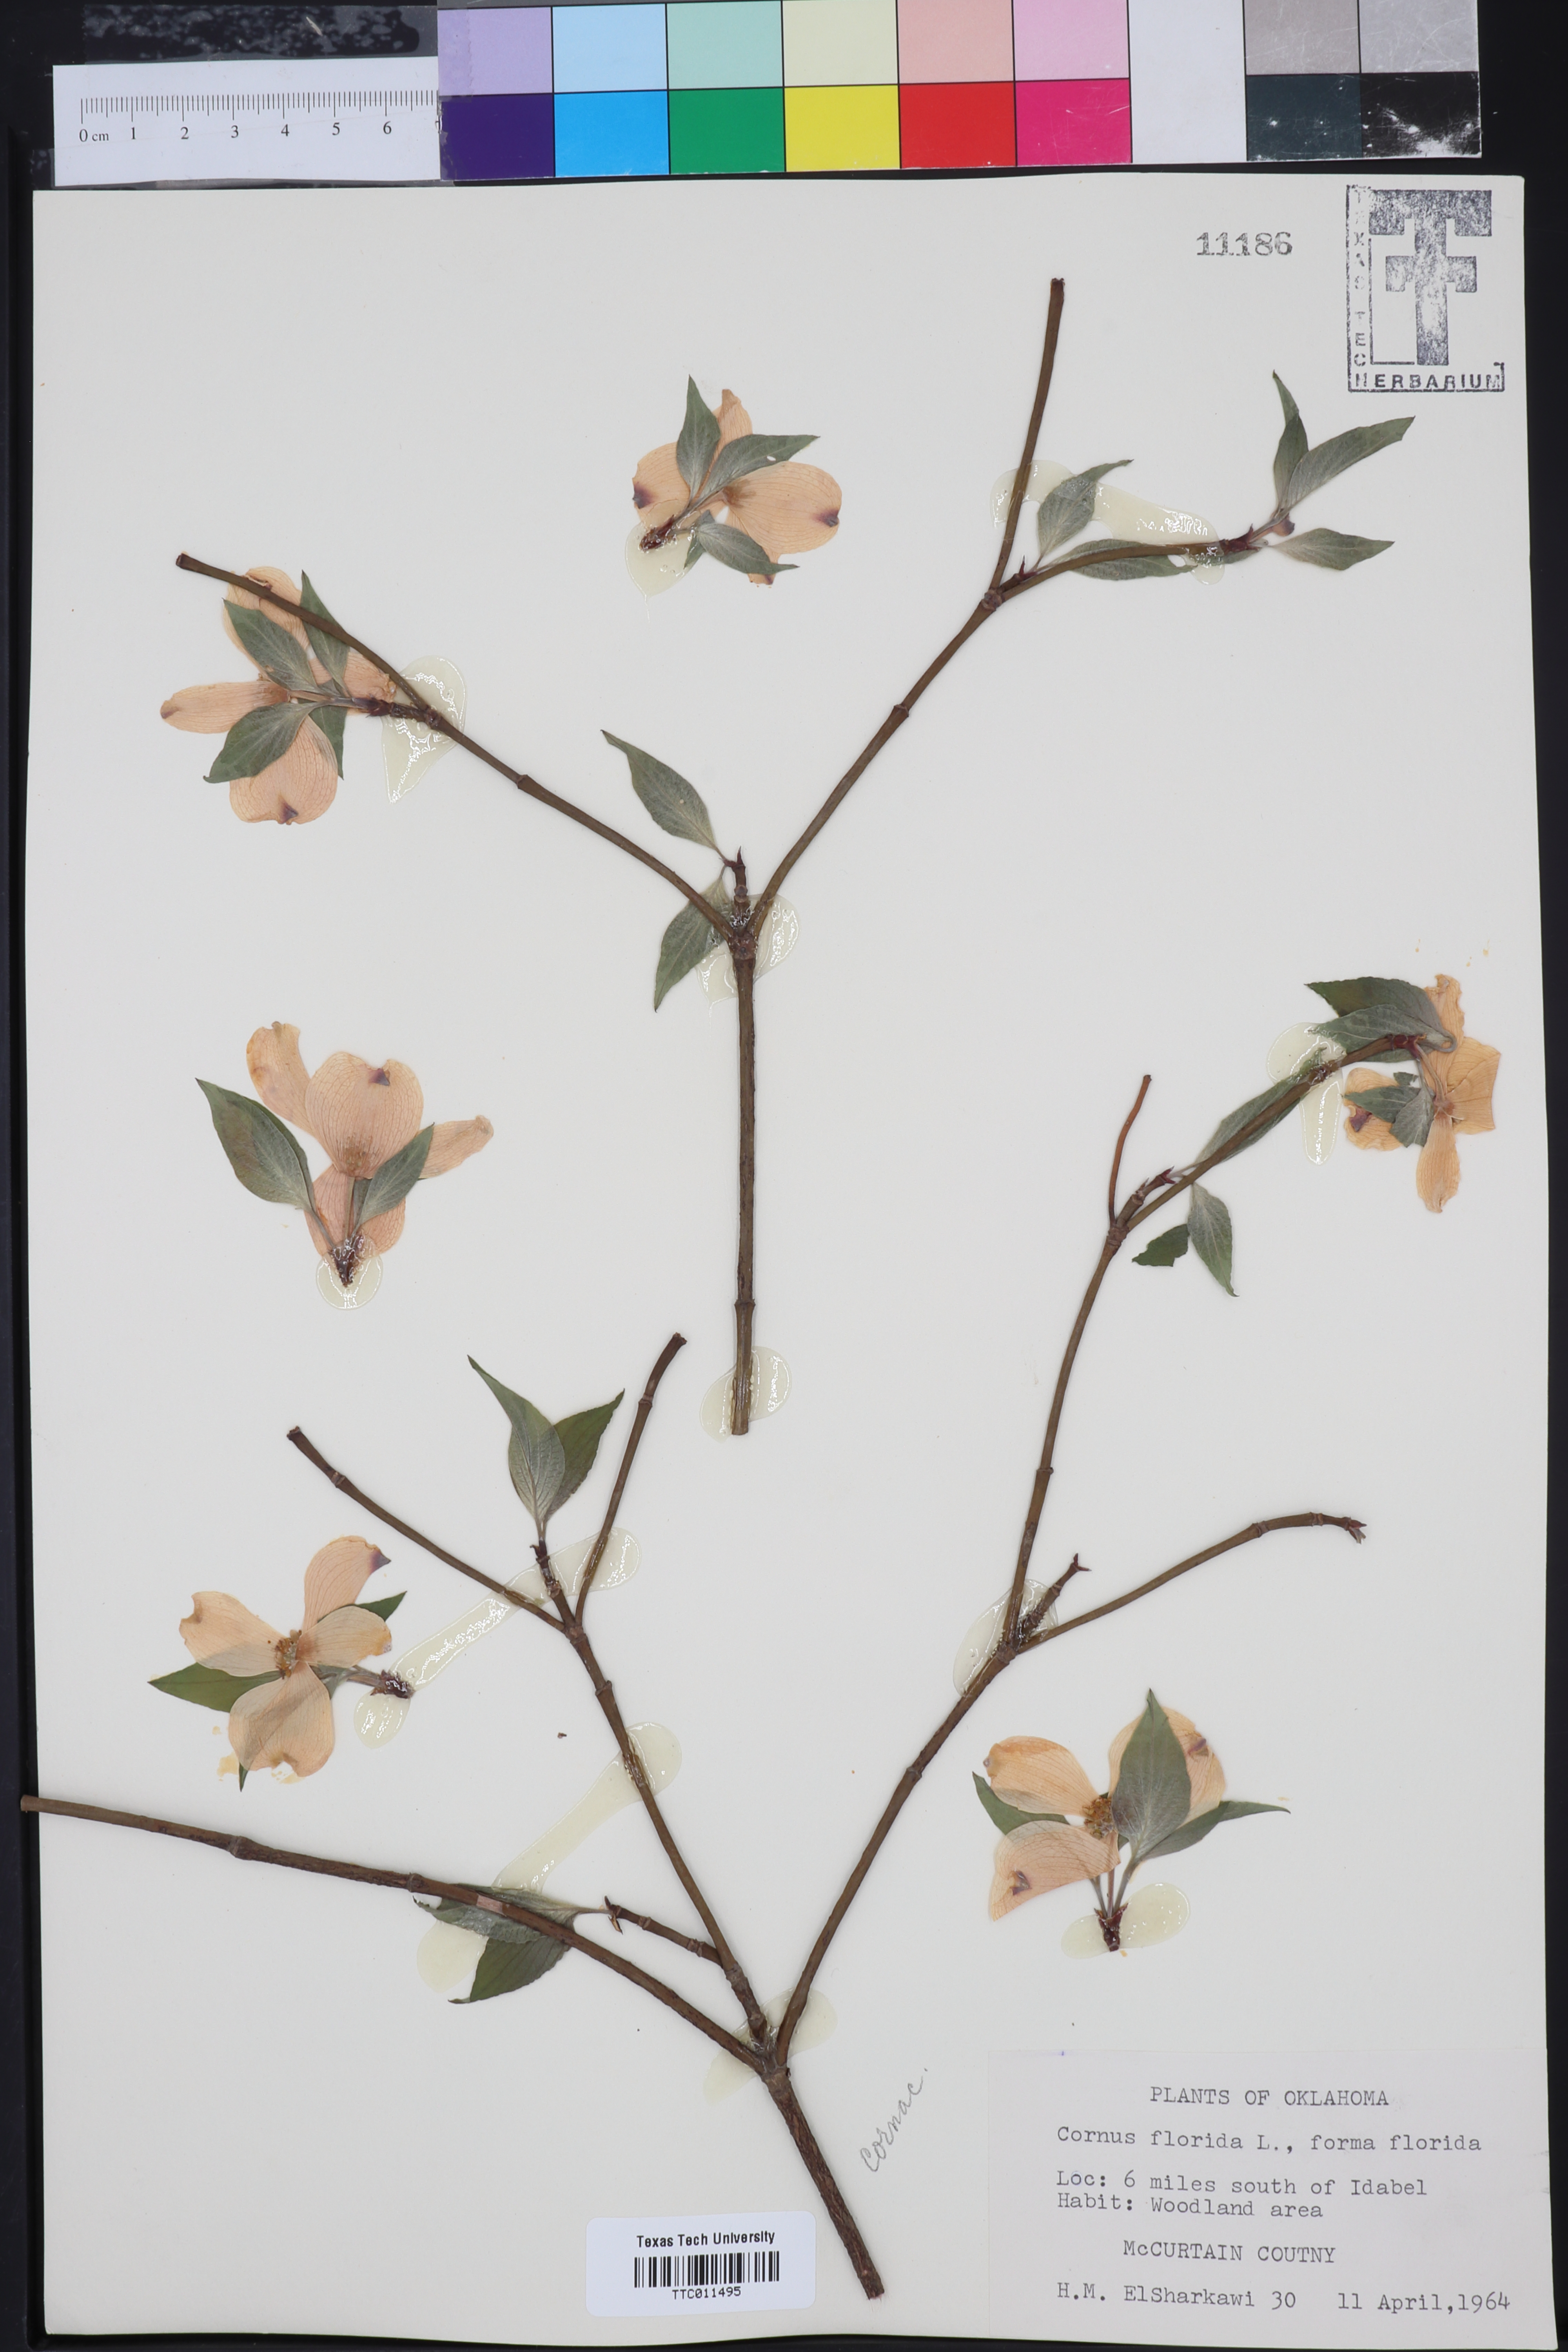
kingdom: Plantae
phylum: Tracheophyta
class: Magnoliopsida
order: Cornales
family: Cornaceae
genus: Cornus
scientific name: Cornus florida
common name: Flowering dogwood
